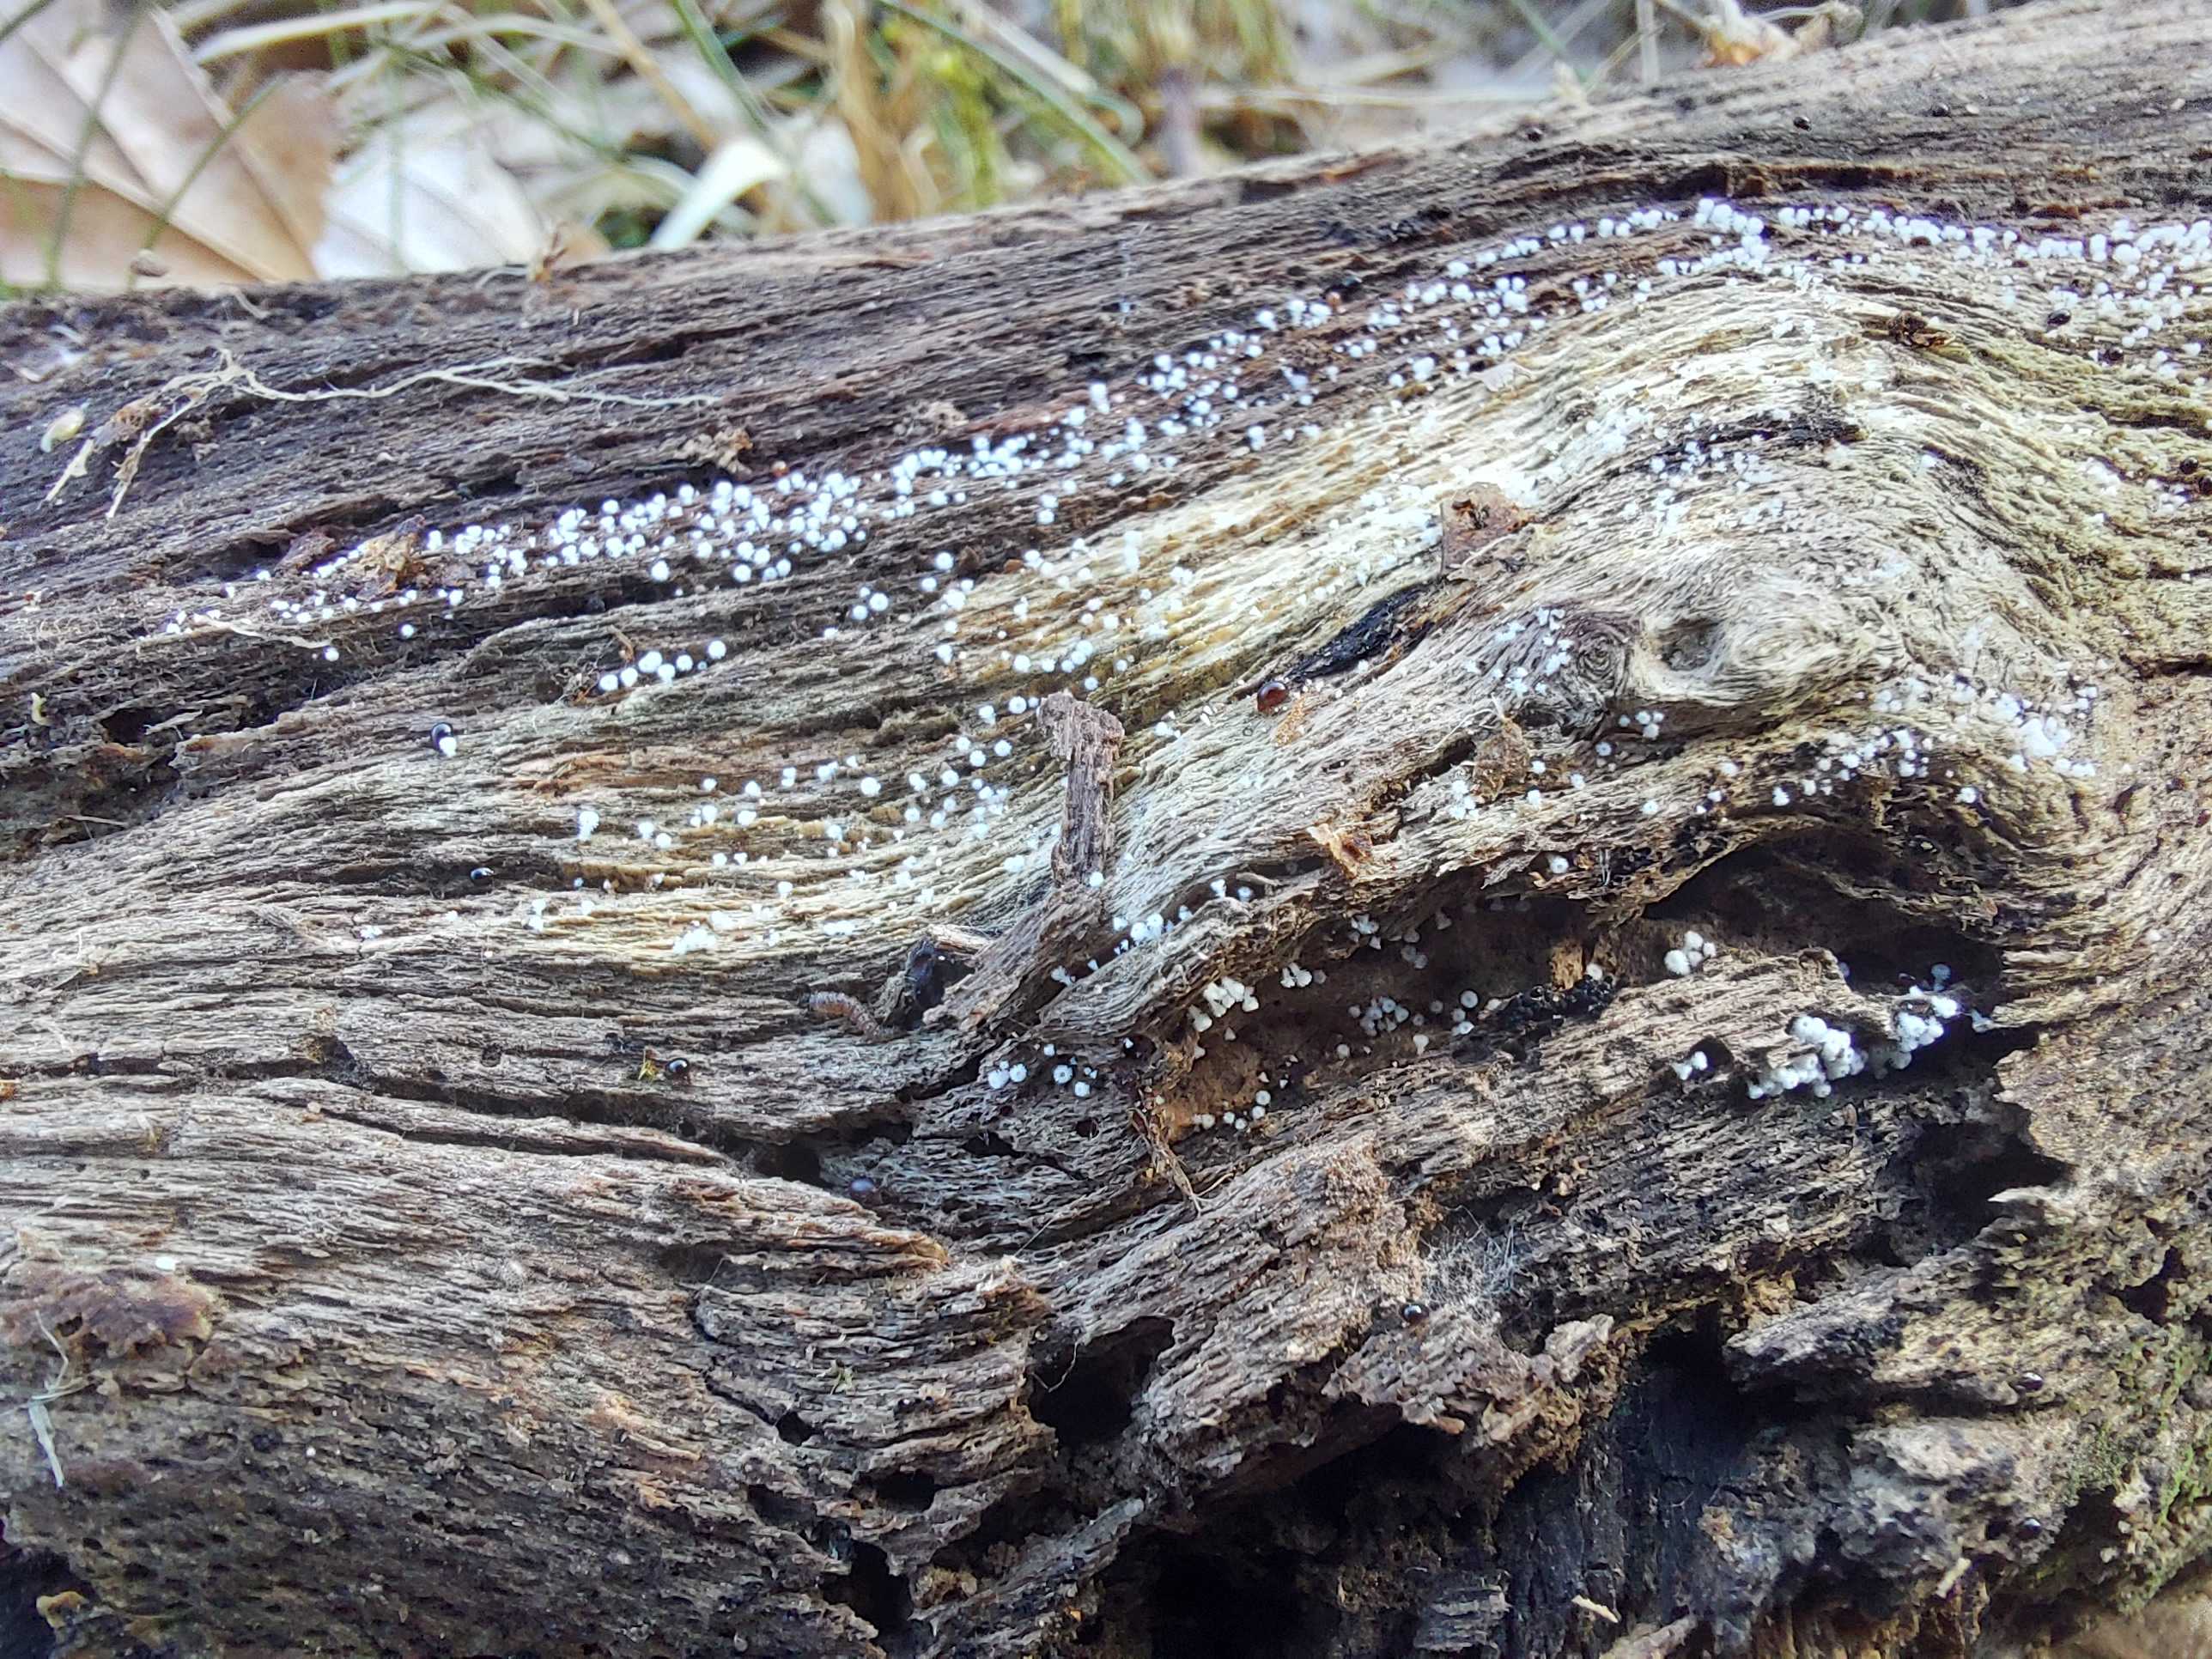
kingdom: Fungi
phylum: Ascomycota
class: Leotiomycetes
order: Helotiales
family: Lachnaceae
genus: Lachnum
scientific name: Lachnum
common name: frynseskive
